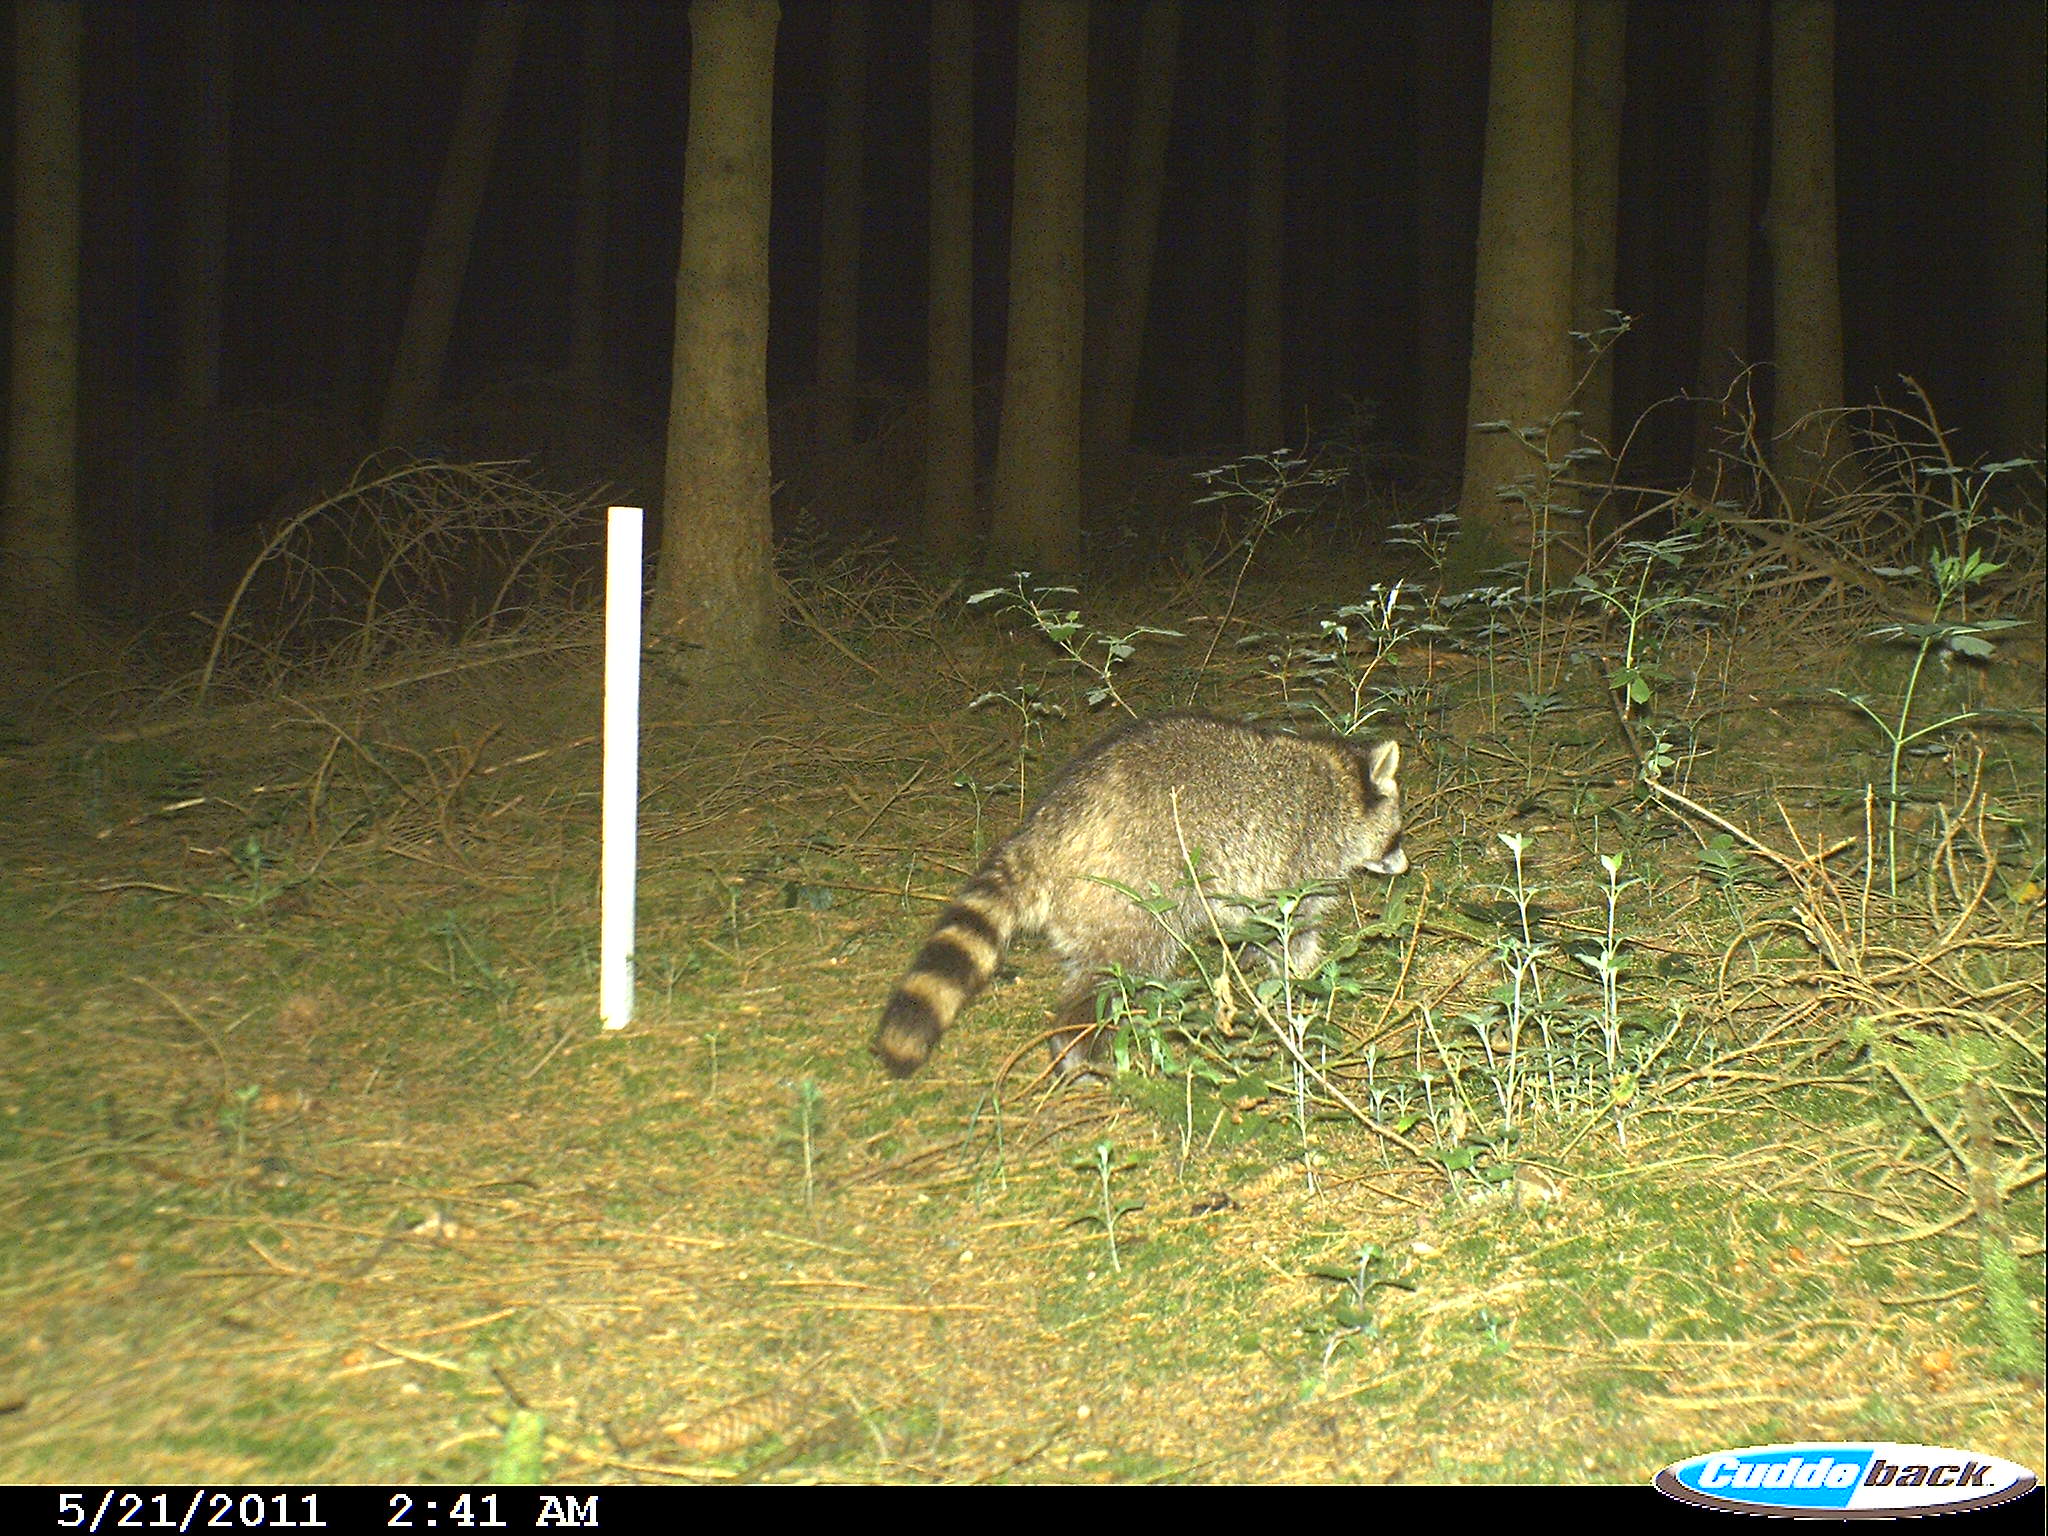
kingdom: Animalia
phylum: Chordata
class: Mammalia
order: Carnivora
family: Procyonidae
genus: Procyon
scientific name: Procyon lotor
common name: Raccoon
